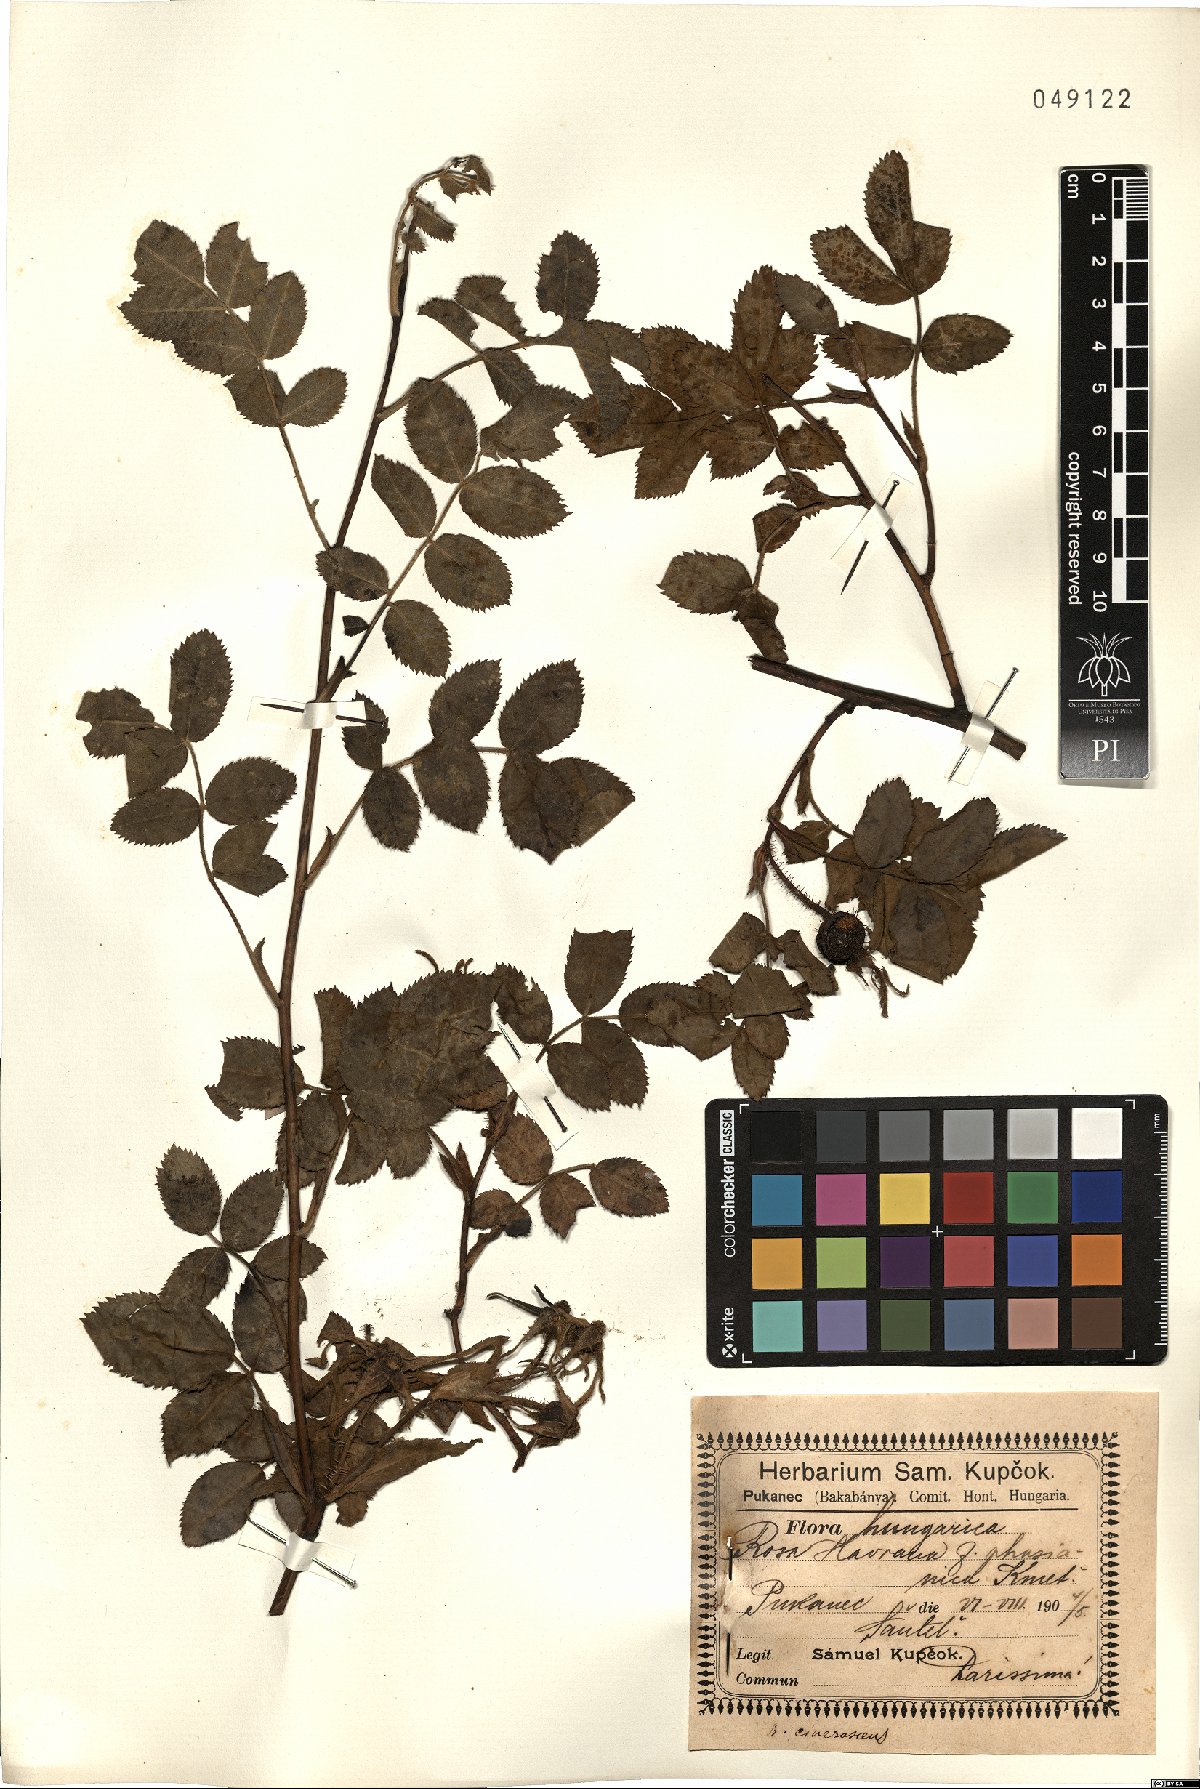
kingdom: Plantae
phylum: Tracheophyta
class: Magnoliopsida
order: Rosales
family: Rosaceae
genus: Rosa
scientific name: Rosa pseudoscabriuscula
